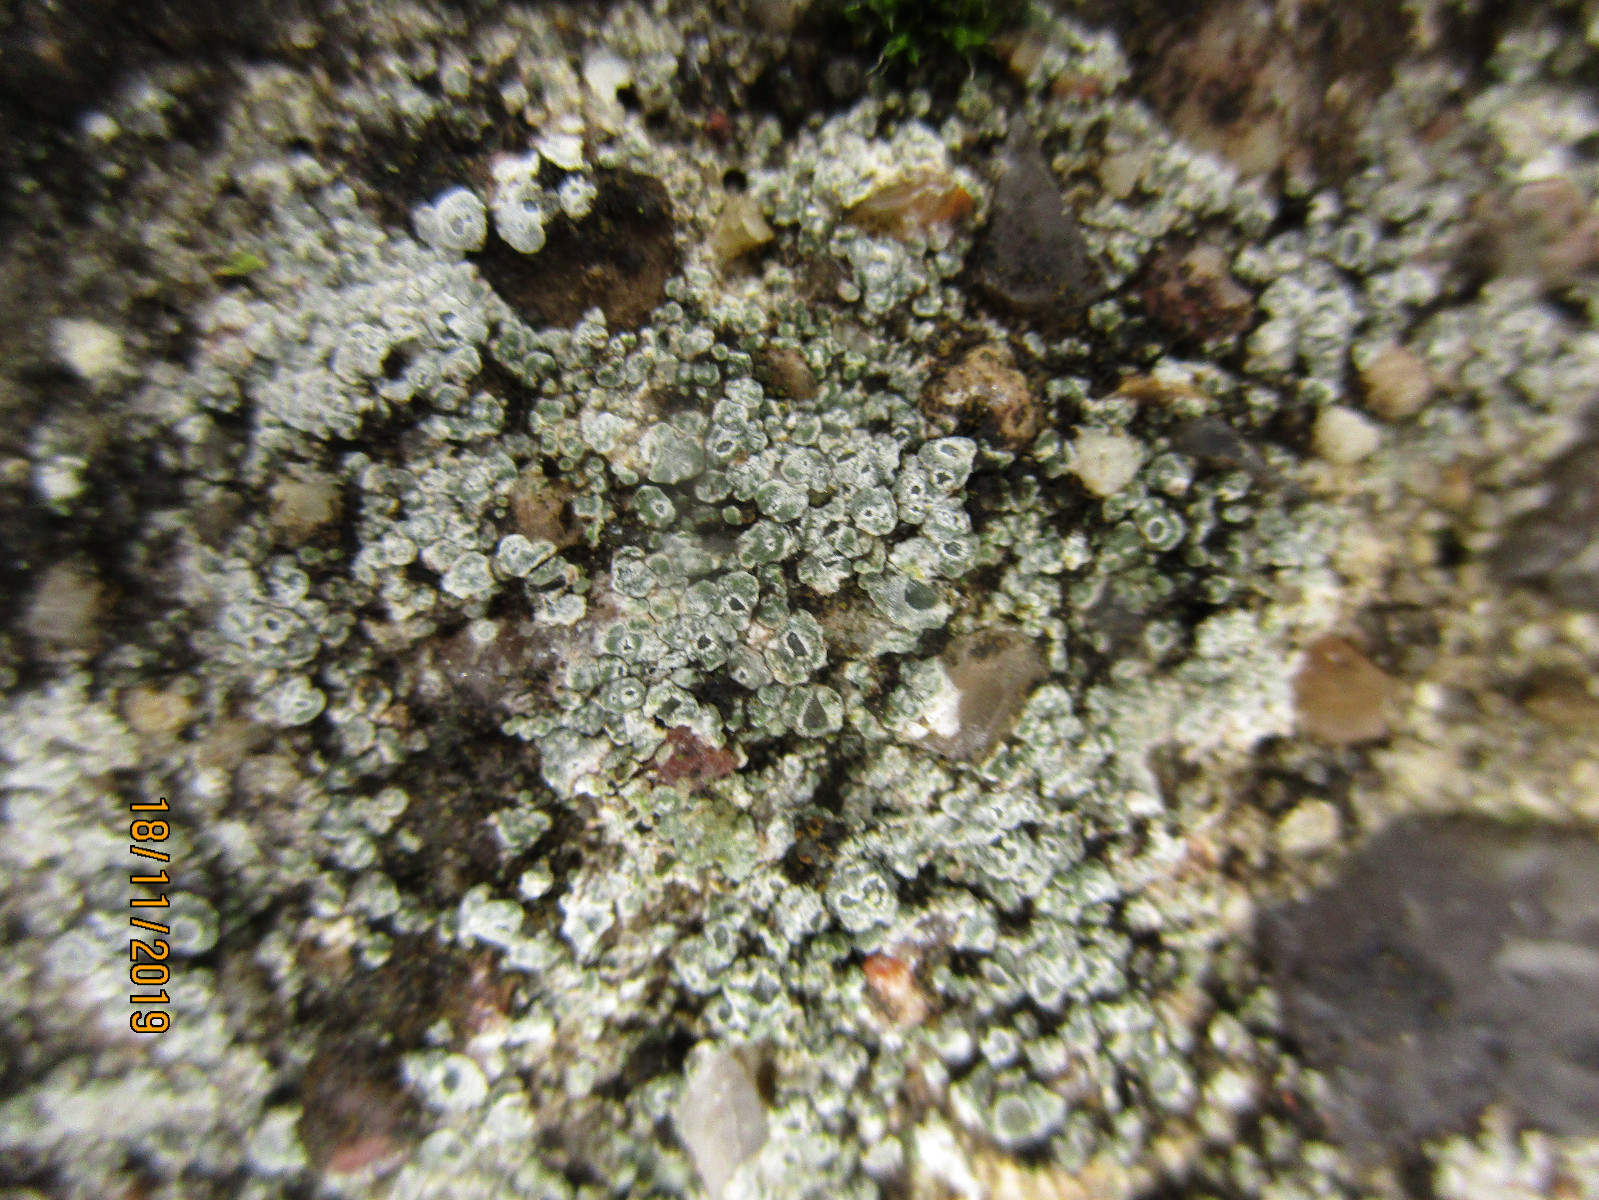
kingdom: Fungi
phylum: Ascomycota
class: Lecanoromycetes
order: Pertusariales
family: Megasporaceae
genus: Circinaria
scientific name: Circinaria contorta
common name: indviklet hulskivelav
